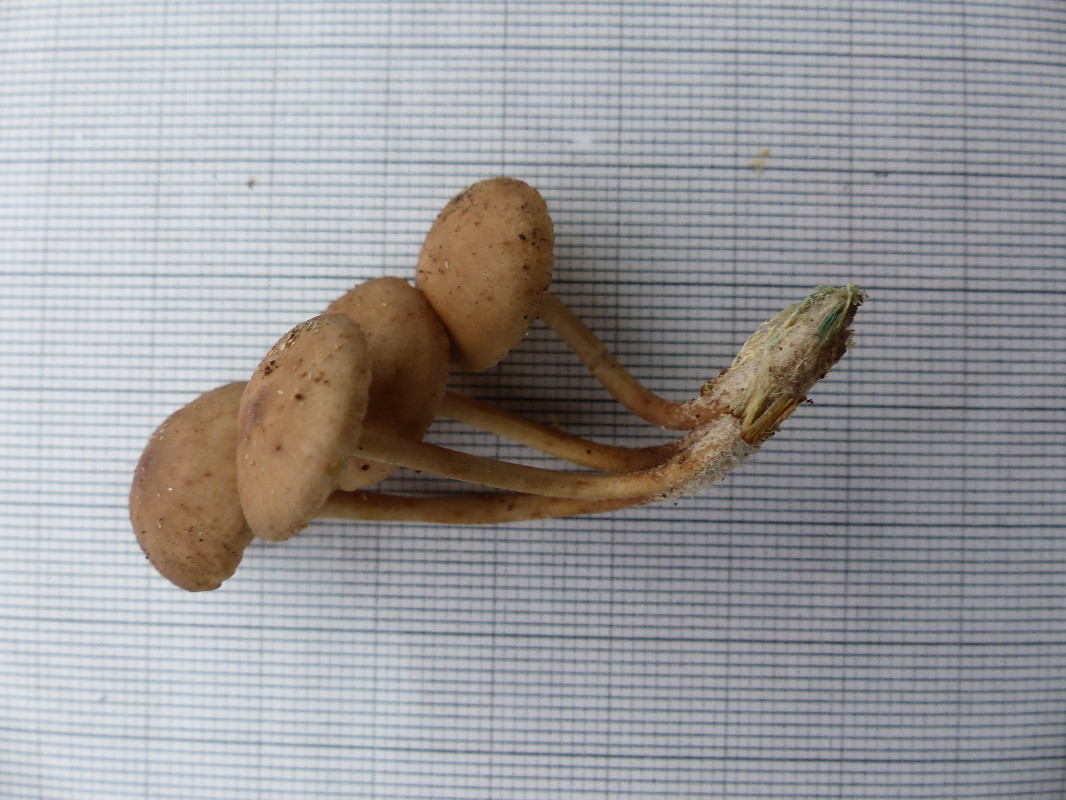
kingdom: Fungi
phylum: Basidiomycota
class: Agaricomycetes
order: Agaricales
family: Mycenaceae
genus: Mycena
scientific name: Mycena tintinnabulum
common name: vinter-huesvamp
